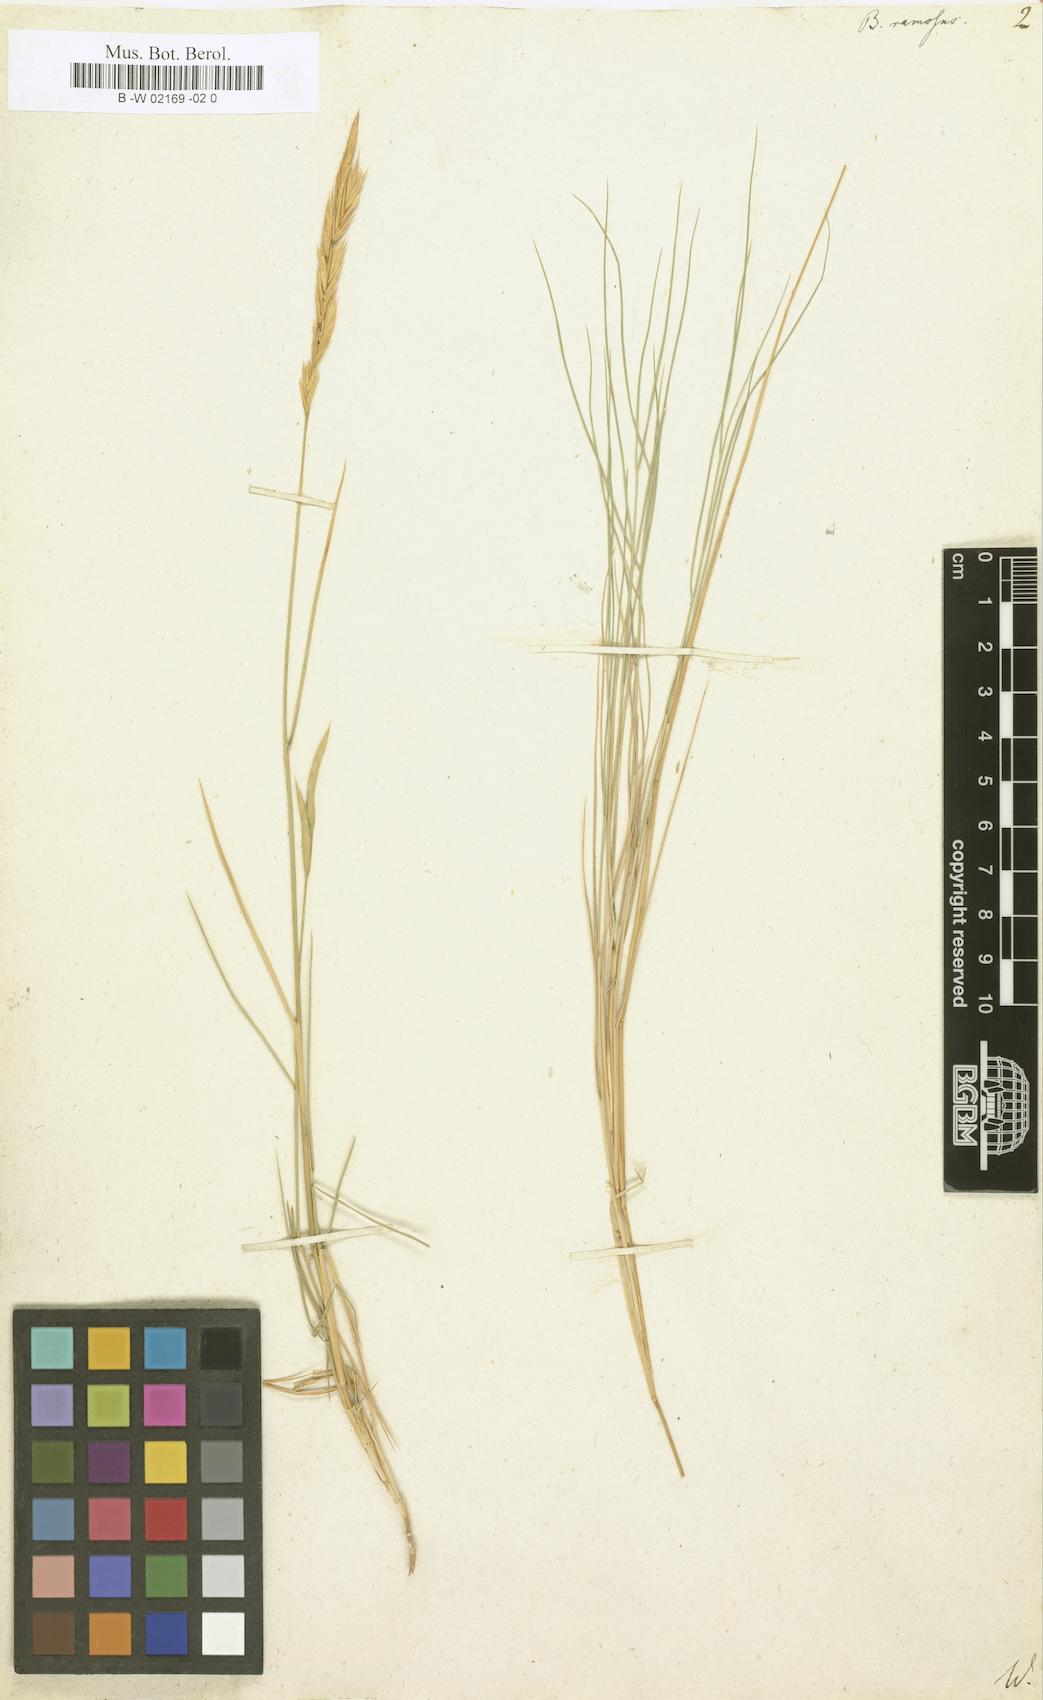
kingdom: Plantae
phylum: Tracheophyta
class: Liliopsida
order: Poales
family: Poaceae
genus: Bromus
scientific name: Bromus ramosus
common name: Hairy brome
